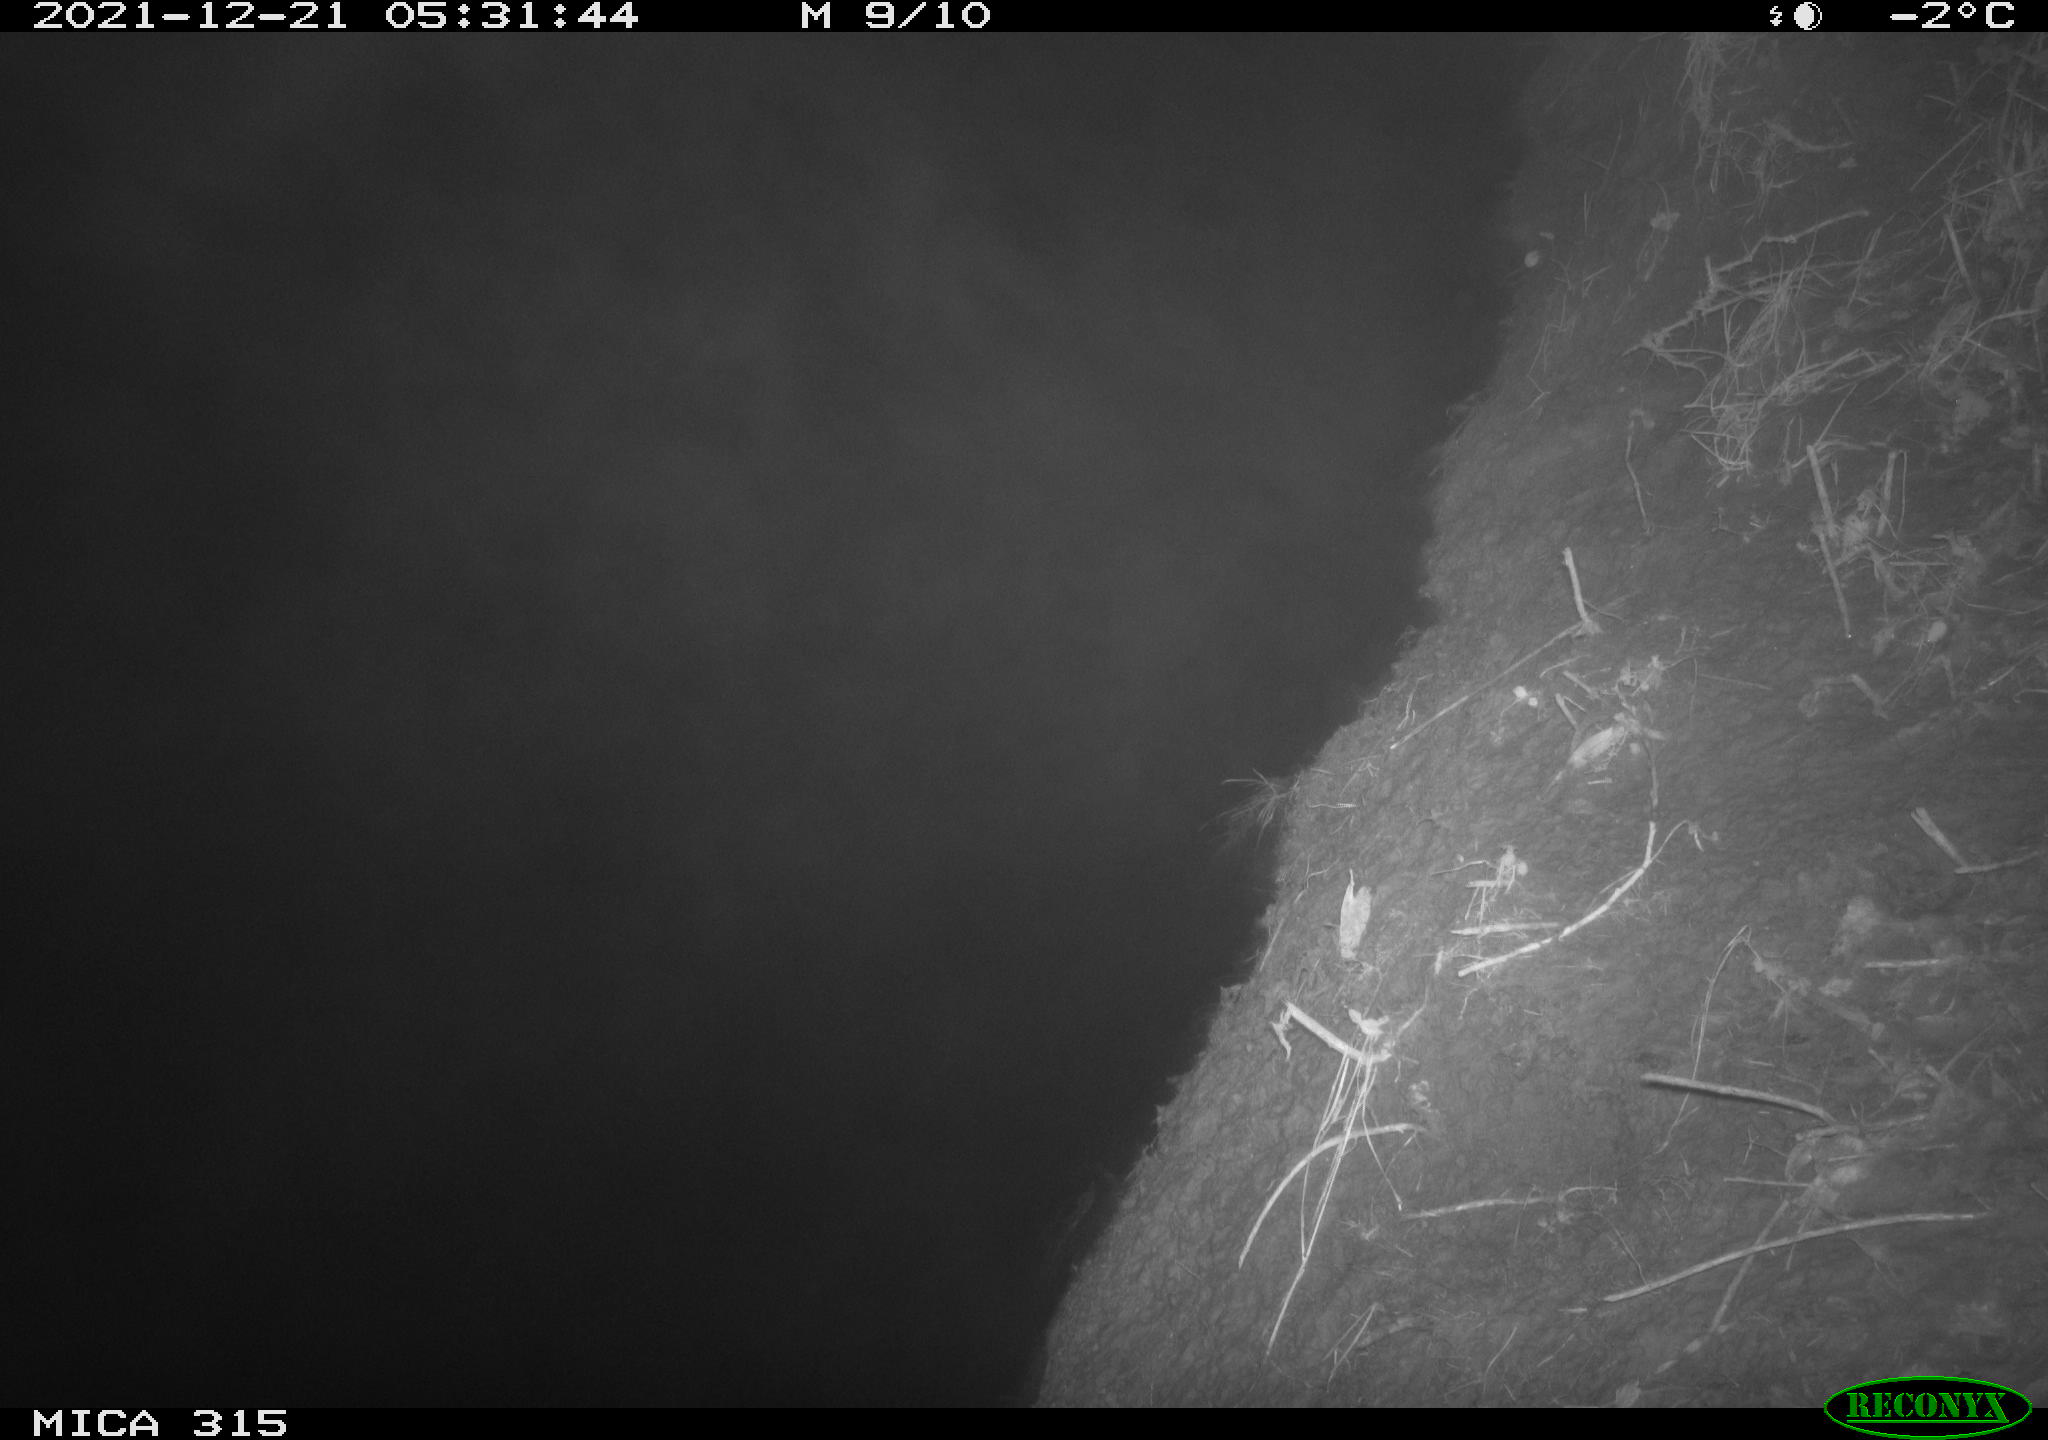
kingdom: Animalia
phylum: Chordata
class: Aves
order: Anseriformes
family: Anatidae
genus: Anas
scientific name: Anas
